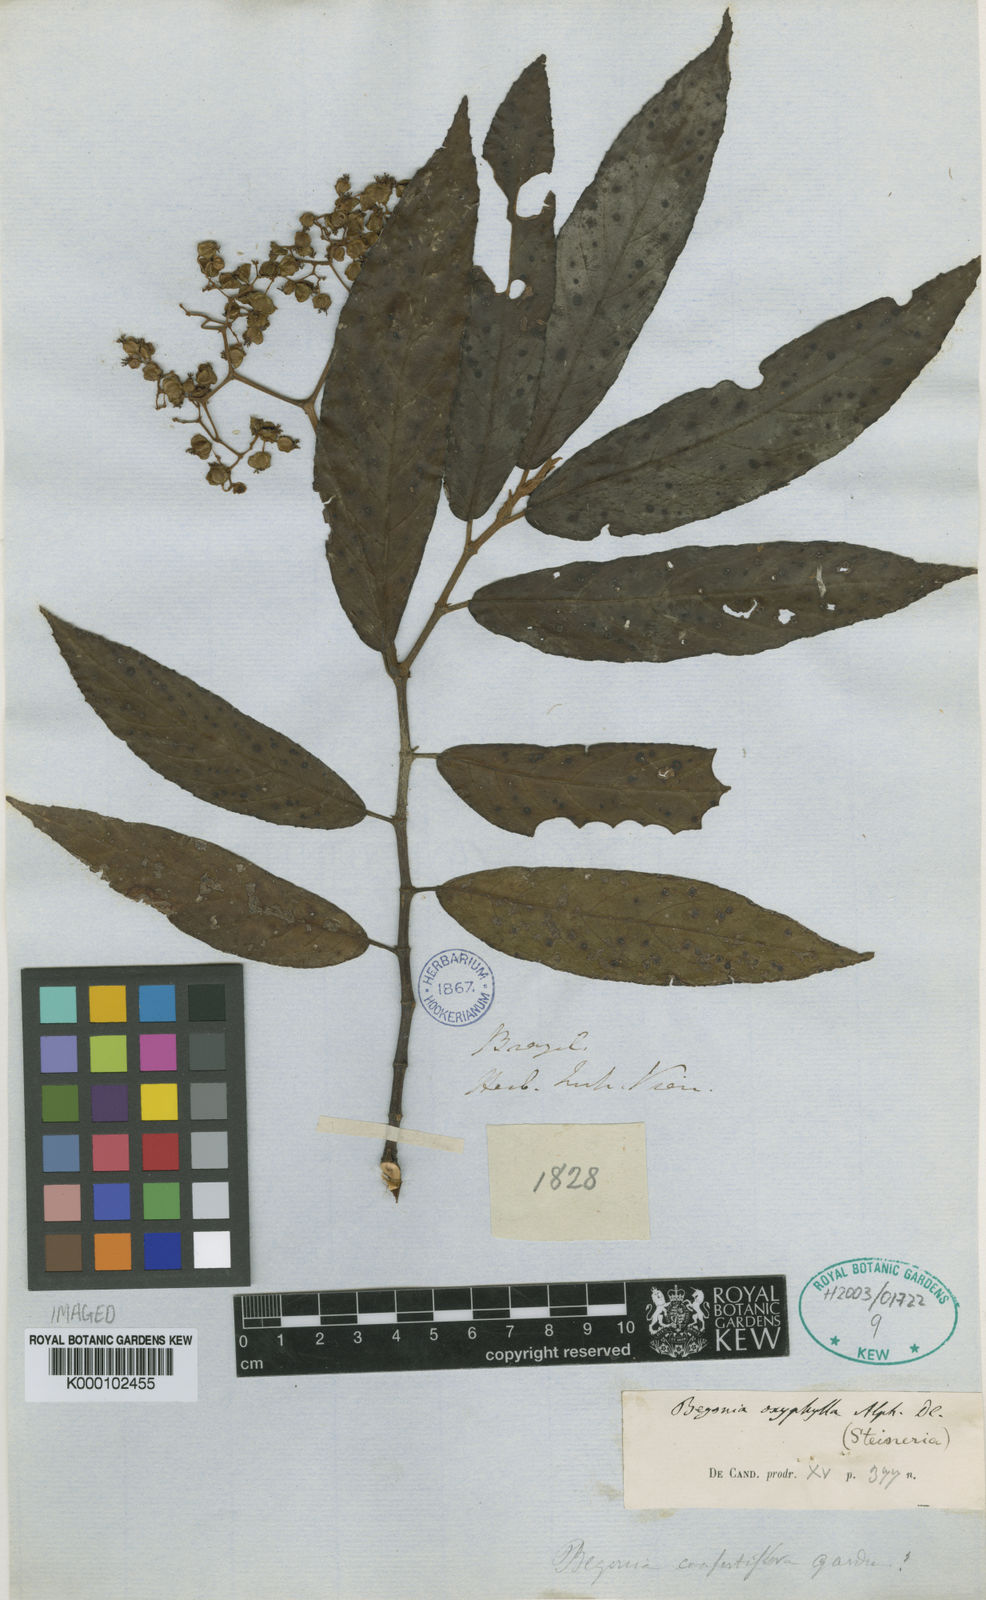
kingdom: Plantae
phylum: Tracheophyta
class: Magnoliopsida
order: Cucurbitales
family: Begoniaceae
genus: Begonia
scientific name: Begonia arborescens
